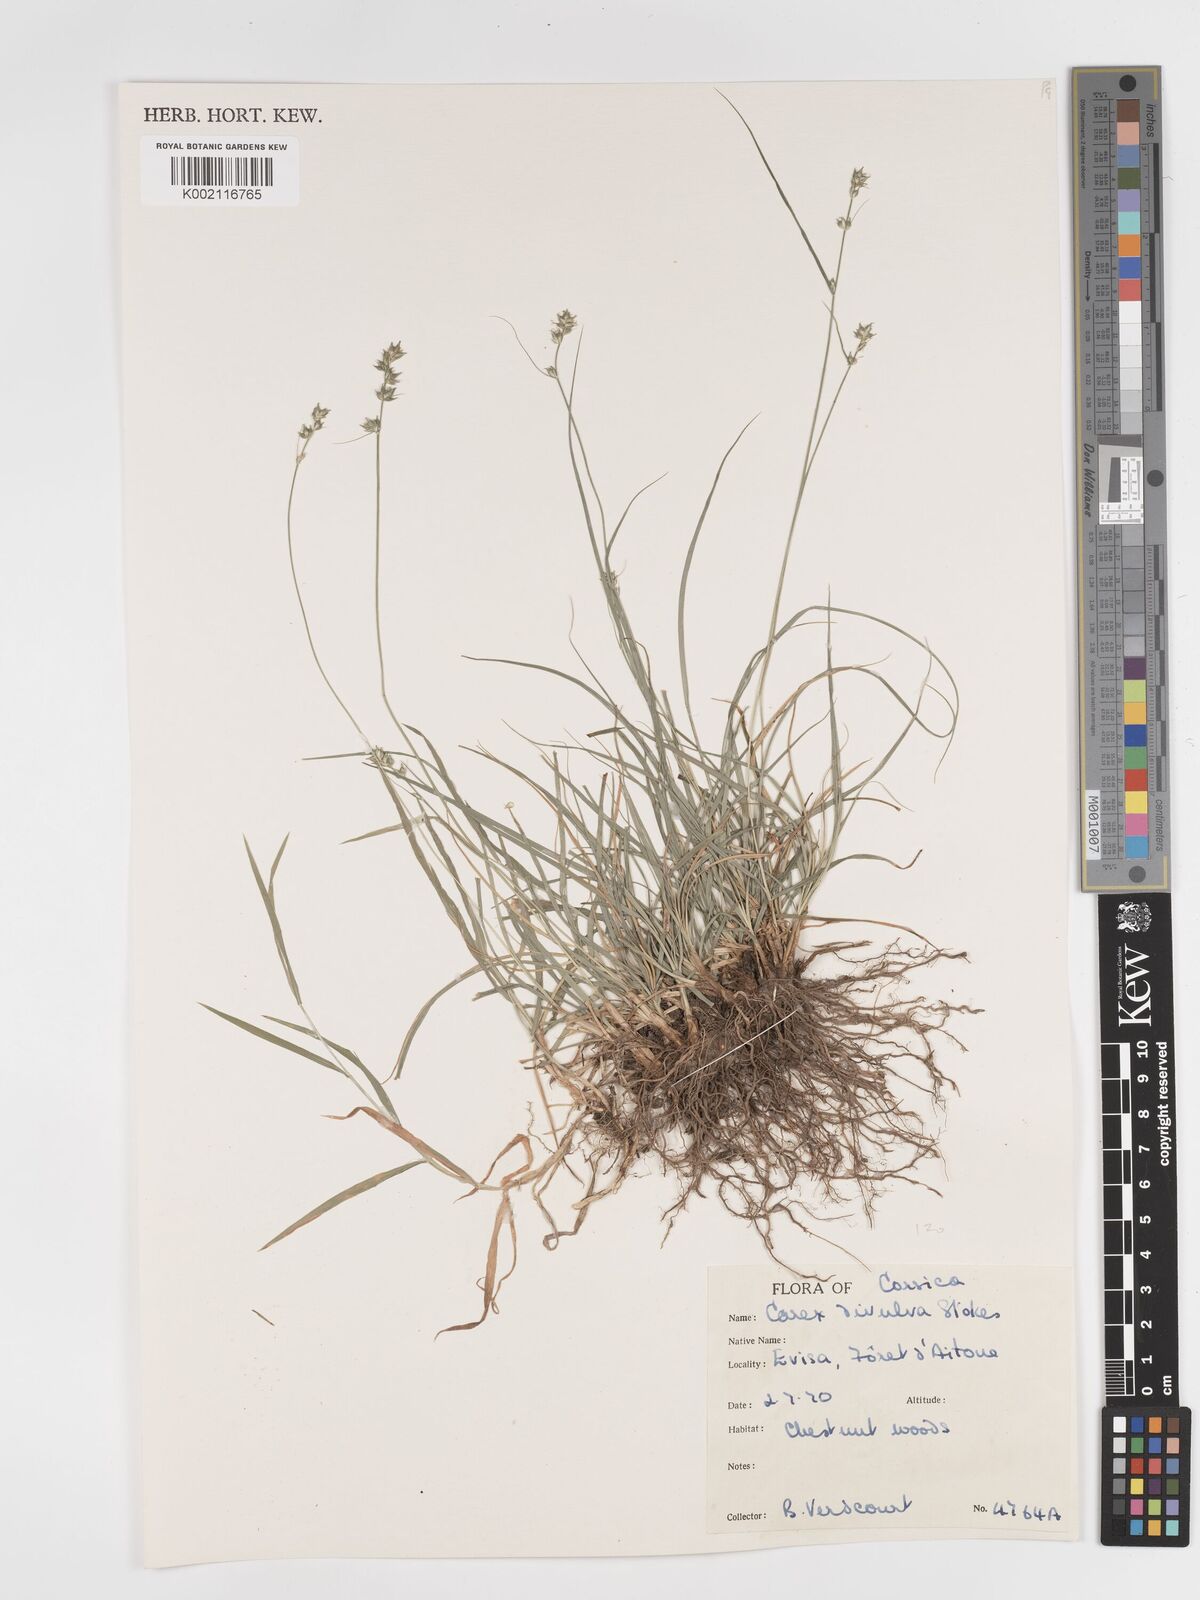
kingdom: Plantae
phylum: Tracheophyta
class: Liliopsida
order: Poales
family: Cyperaceae
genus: Carex
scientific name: Carex divulsa
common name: Grassland sedge
